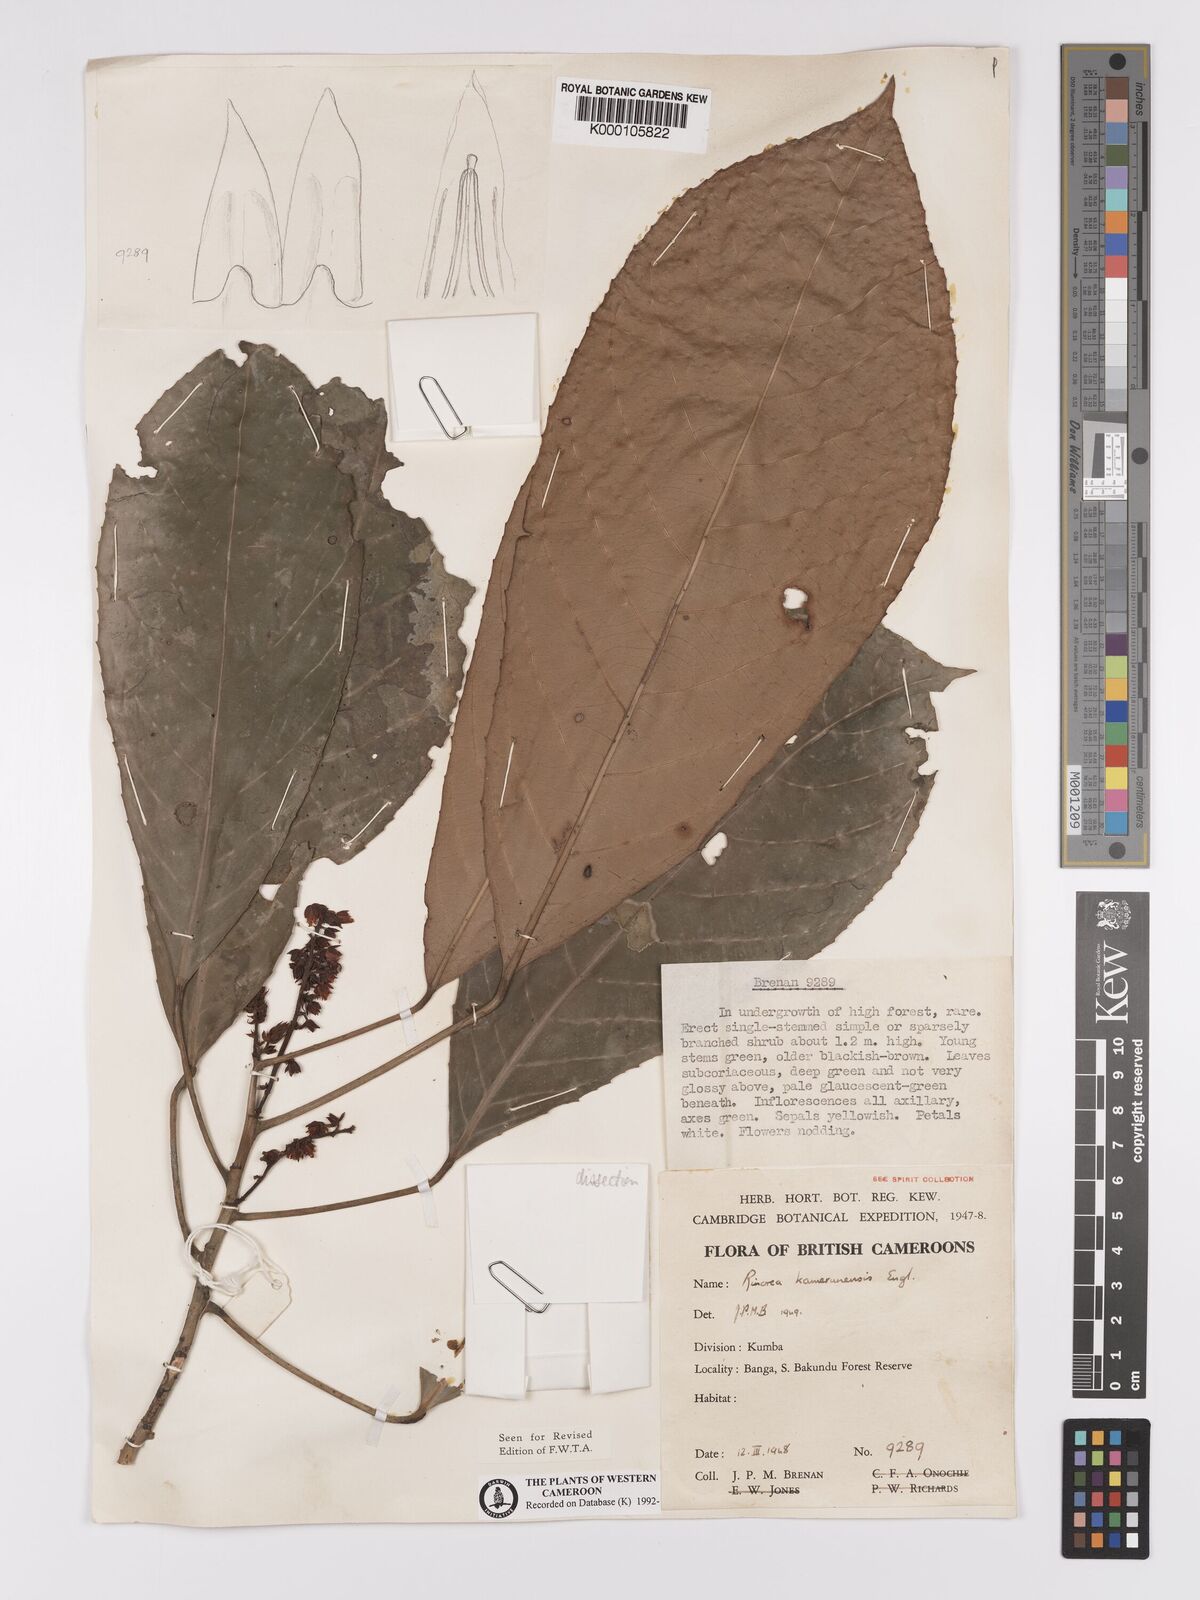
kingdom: Plantae
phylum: Tracheophyta
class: Magnoliopsida
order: Malpighiales
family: Violaceae
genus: Rinorea
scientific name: Rinorea kamerunensis
